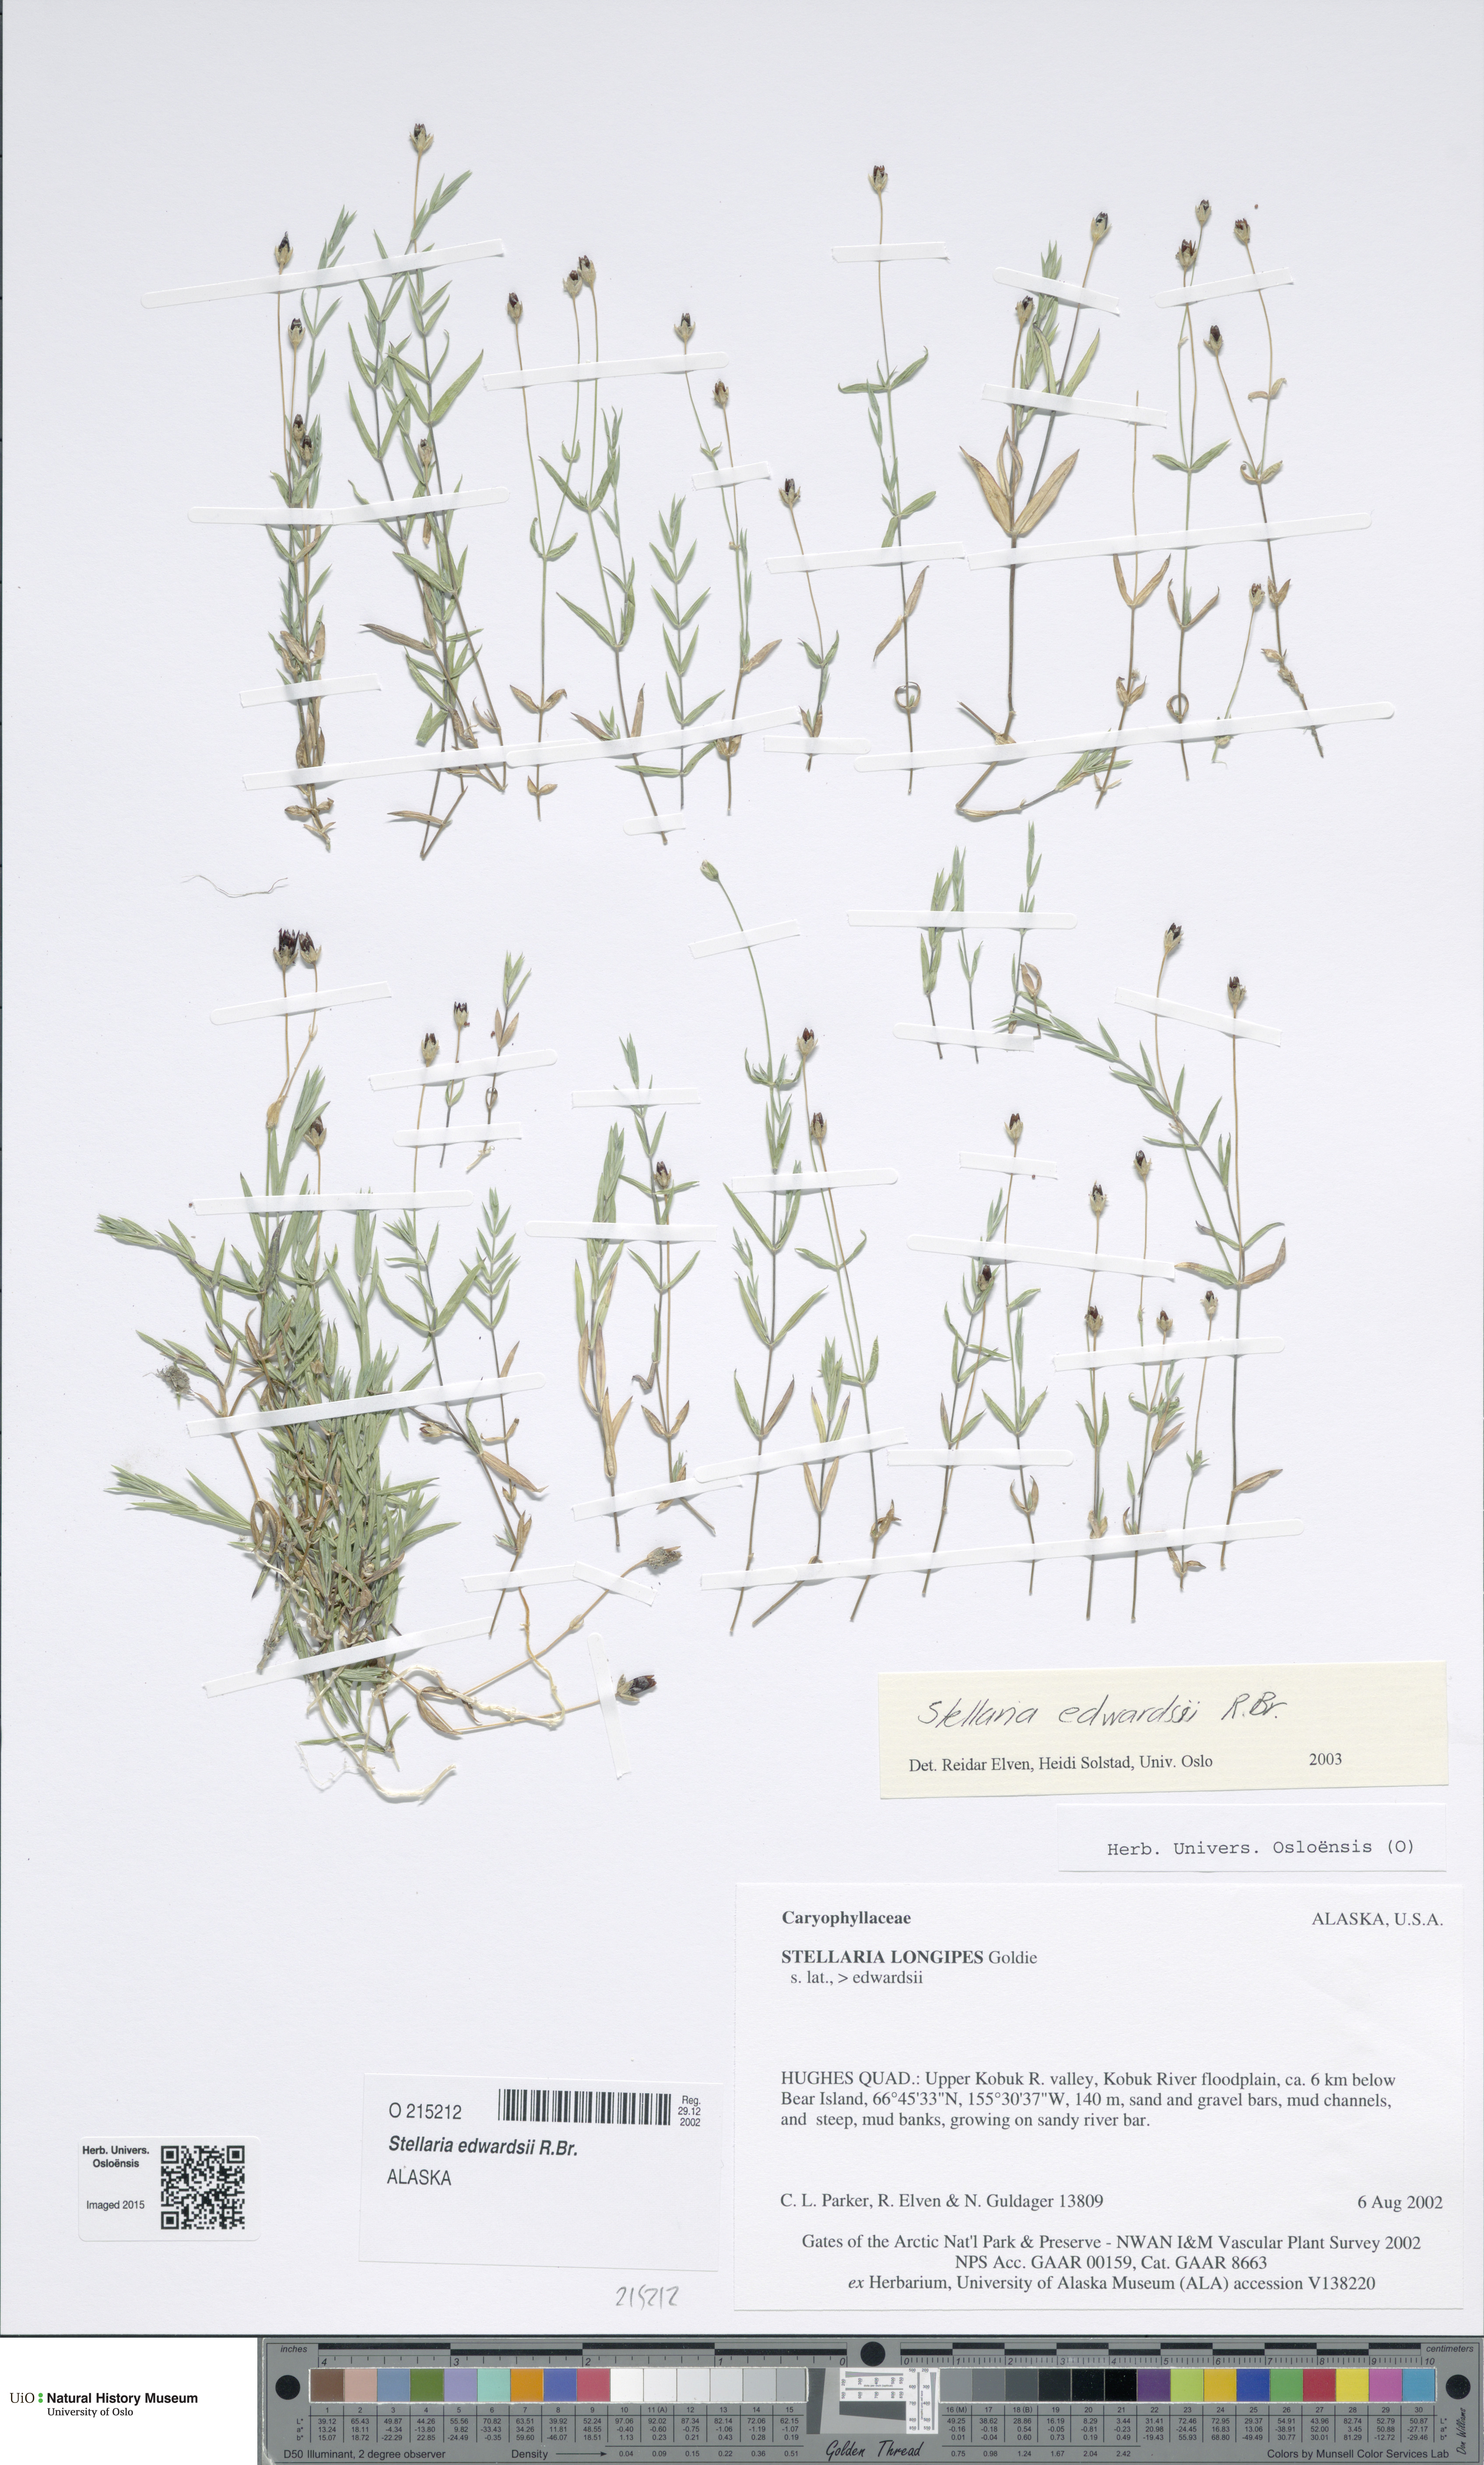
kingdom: Plantae
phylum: Tracheophyta
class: Magnoliopsida
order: Caryophyllales
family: Caryophyllaceae
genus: Stellaria
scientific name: Stellaria edwardsii
